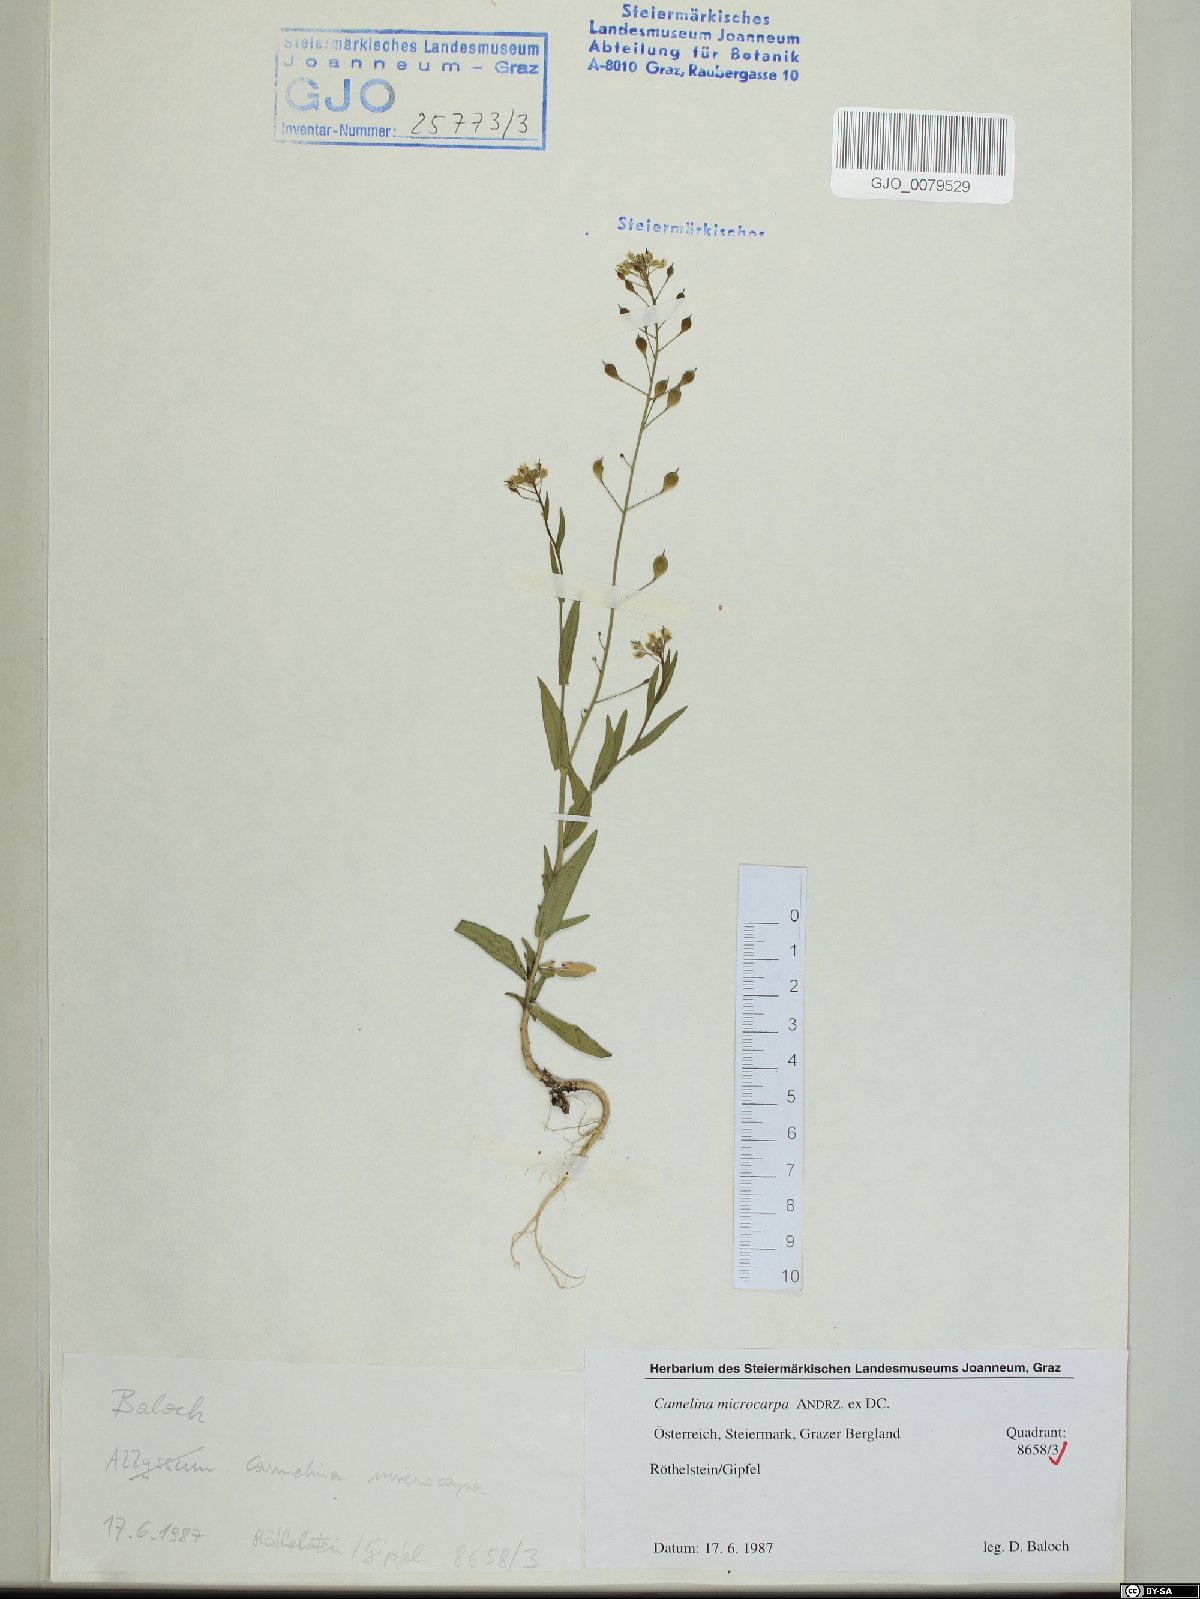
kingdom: Plantae
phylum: Tracheophyta
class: Magnoliopsida
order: Brassicales
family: Brassicaceae
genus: Camelina
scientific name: Camelina microcarpa
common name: Lesser gold-of-pleasure
